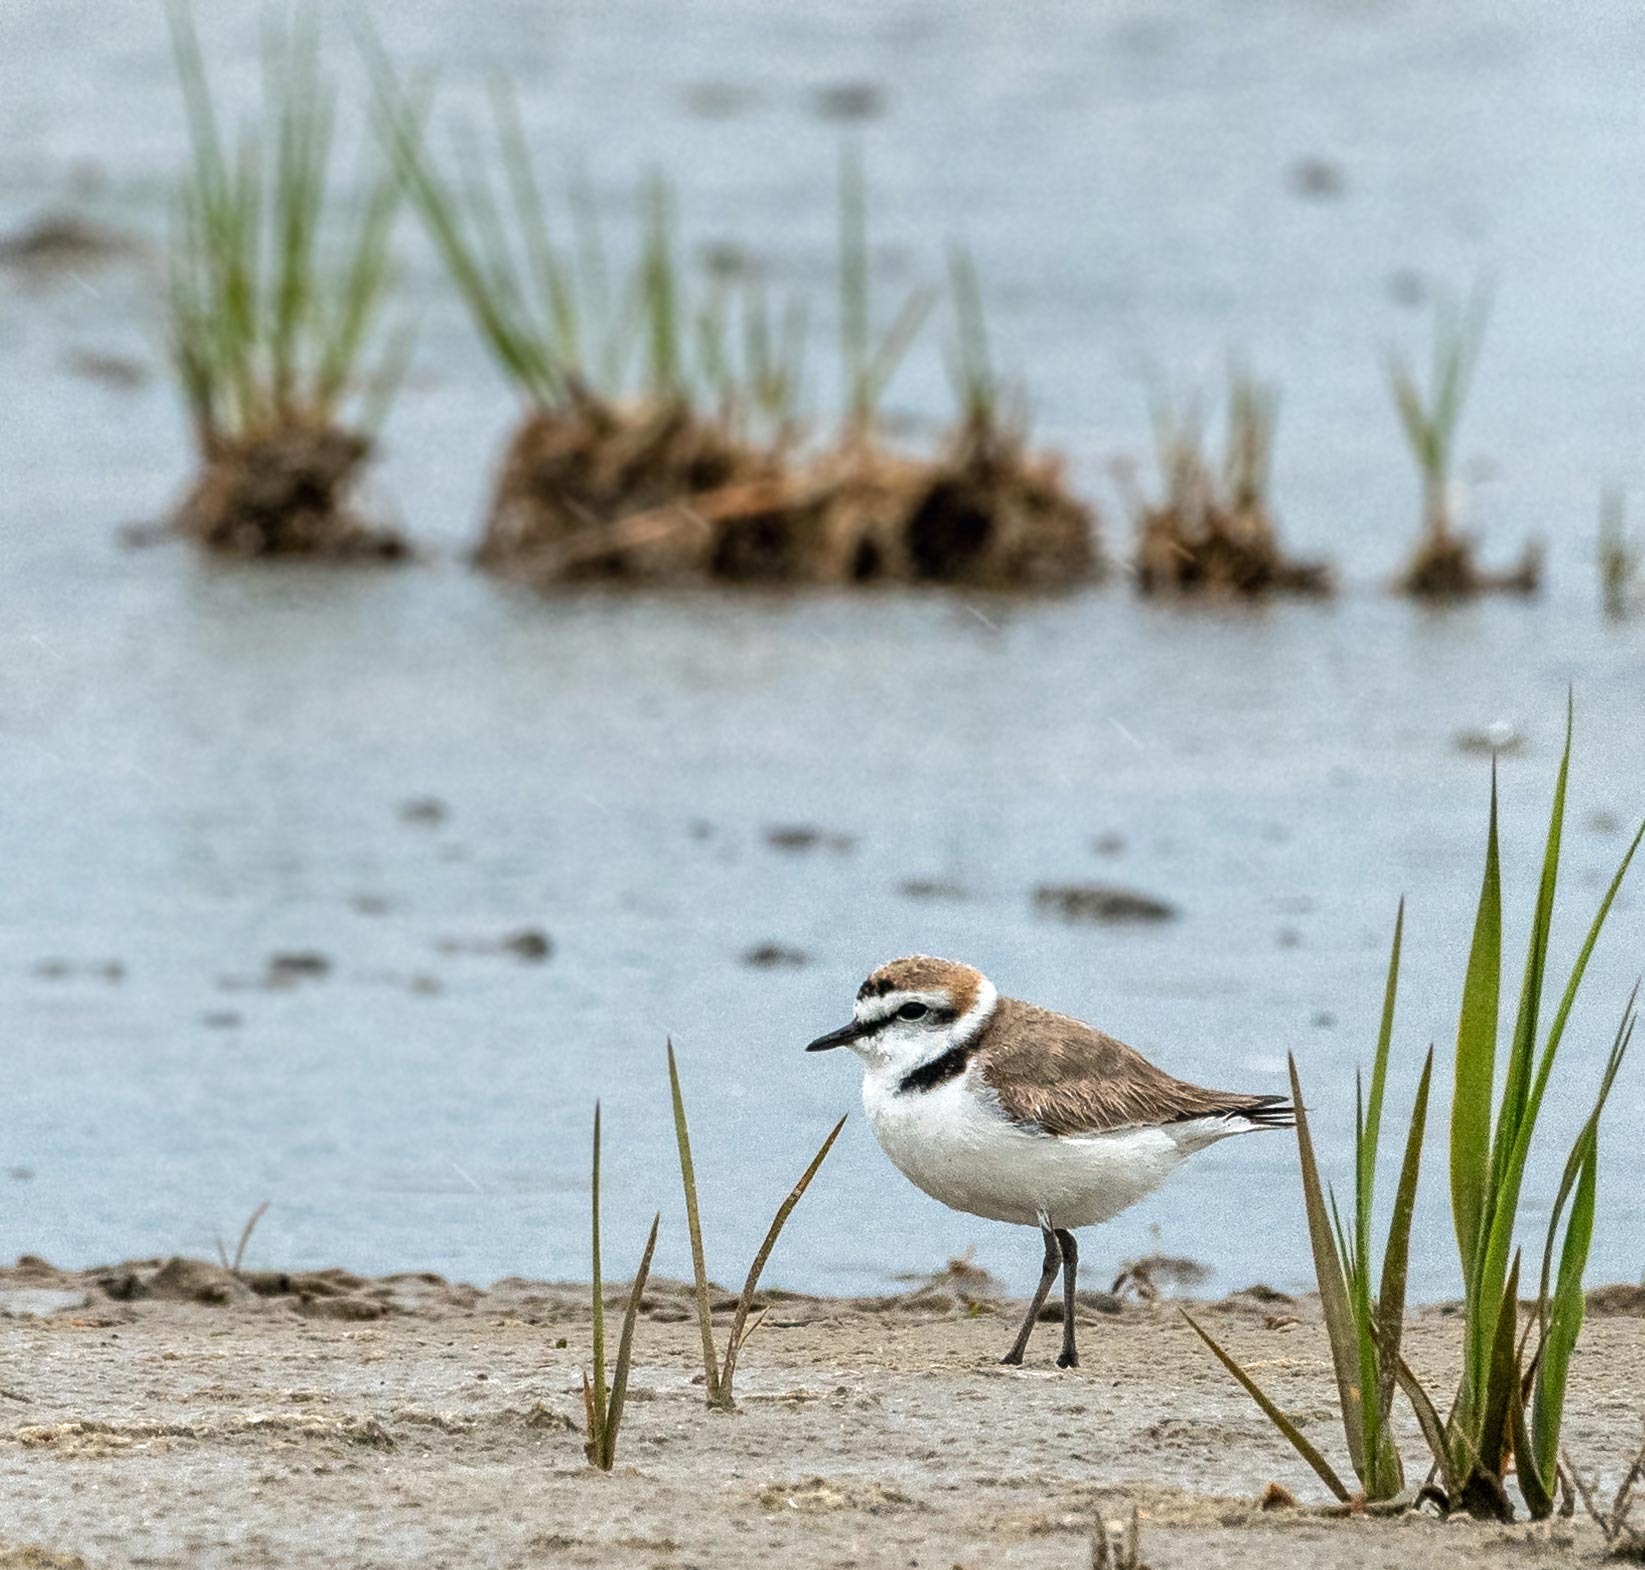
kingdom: Animalia
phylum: Chordata
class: Aves
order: Charadriiformes
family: Charadriidae
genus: Charadrius
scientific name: Charadrius alexandrinus
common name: Hvidbrystet præstekrave
